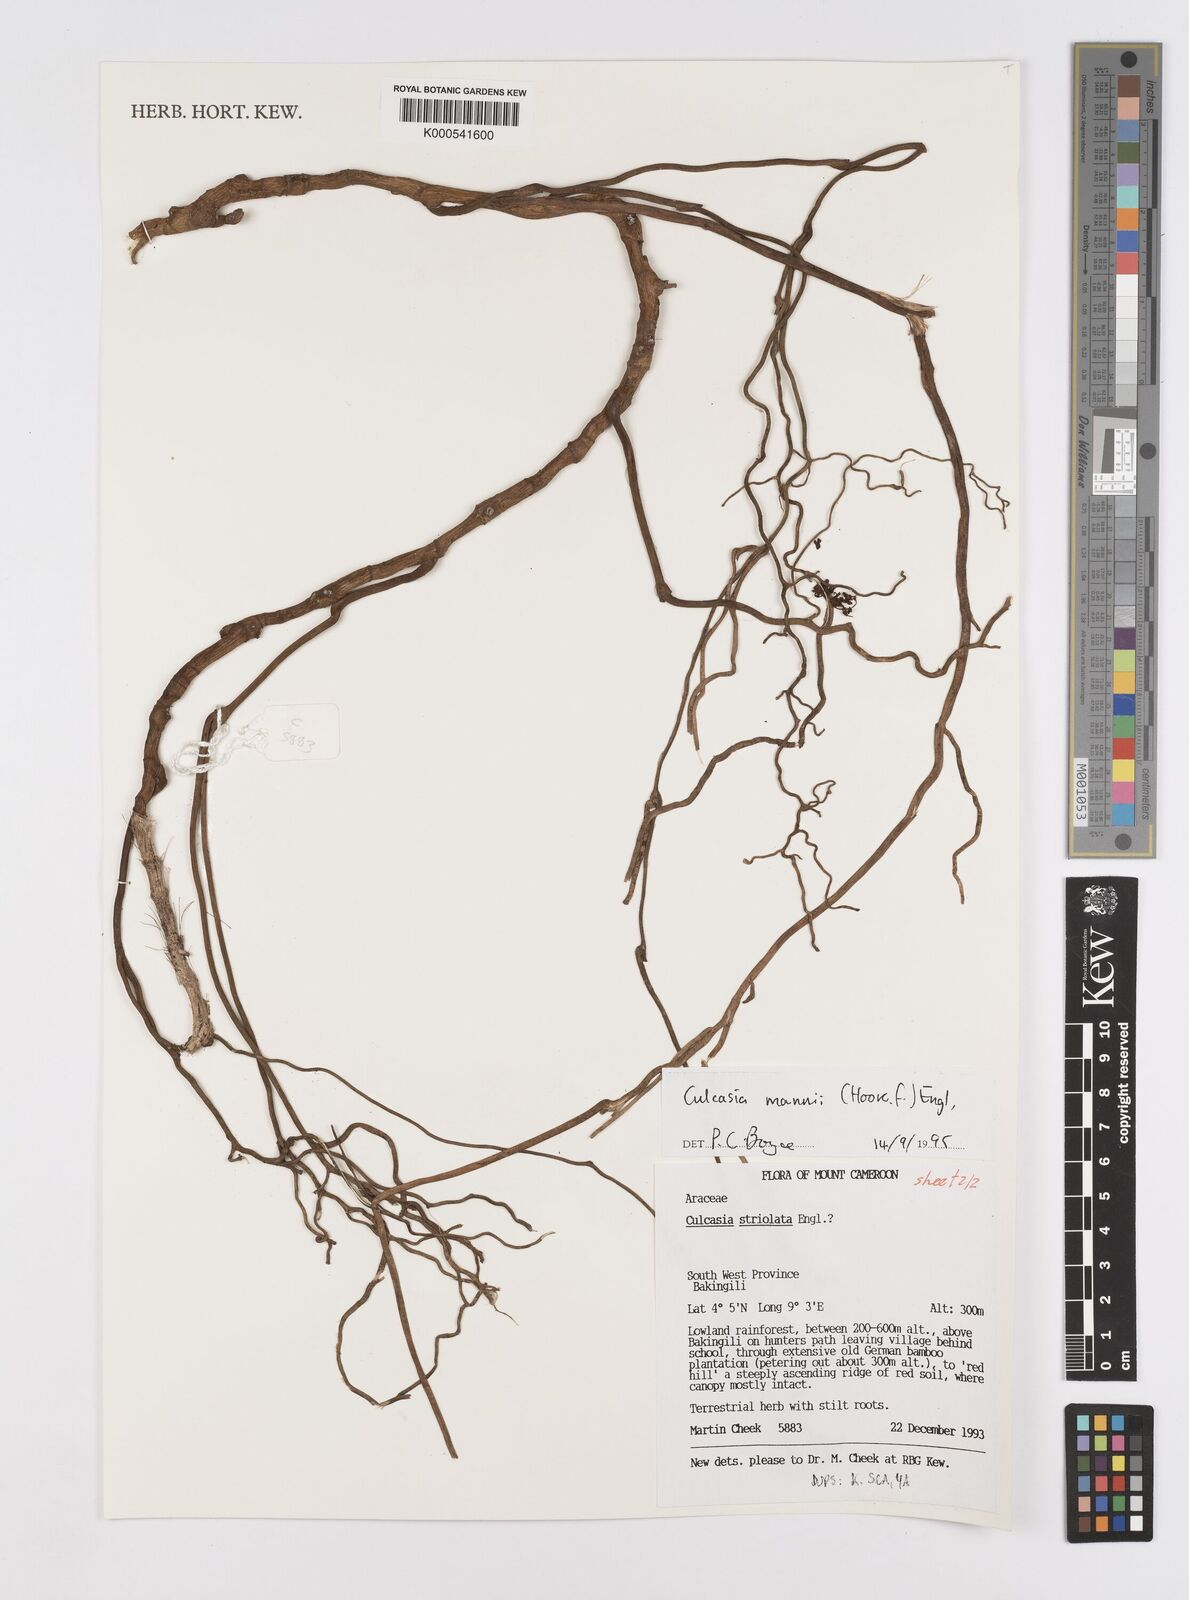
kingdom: Plantae
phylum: Tracheophyta
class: Liliopsida
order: Alismatales
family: Araceae
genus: Culcasia
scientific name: Culcasia mannii
